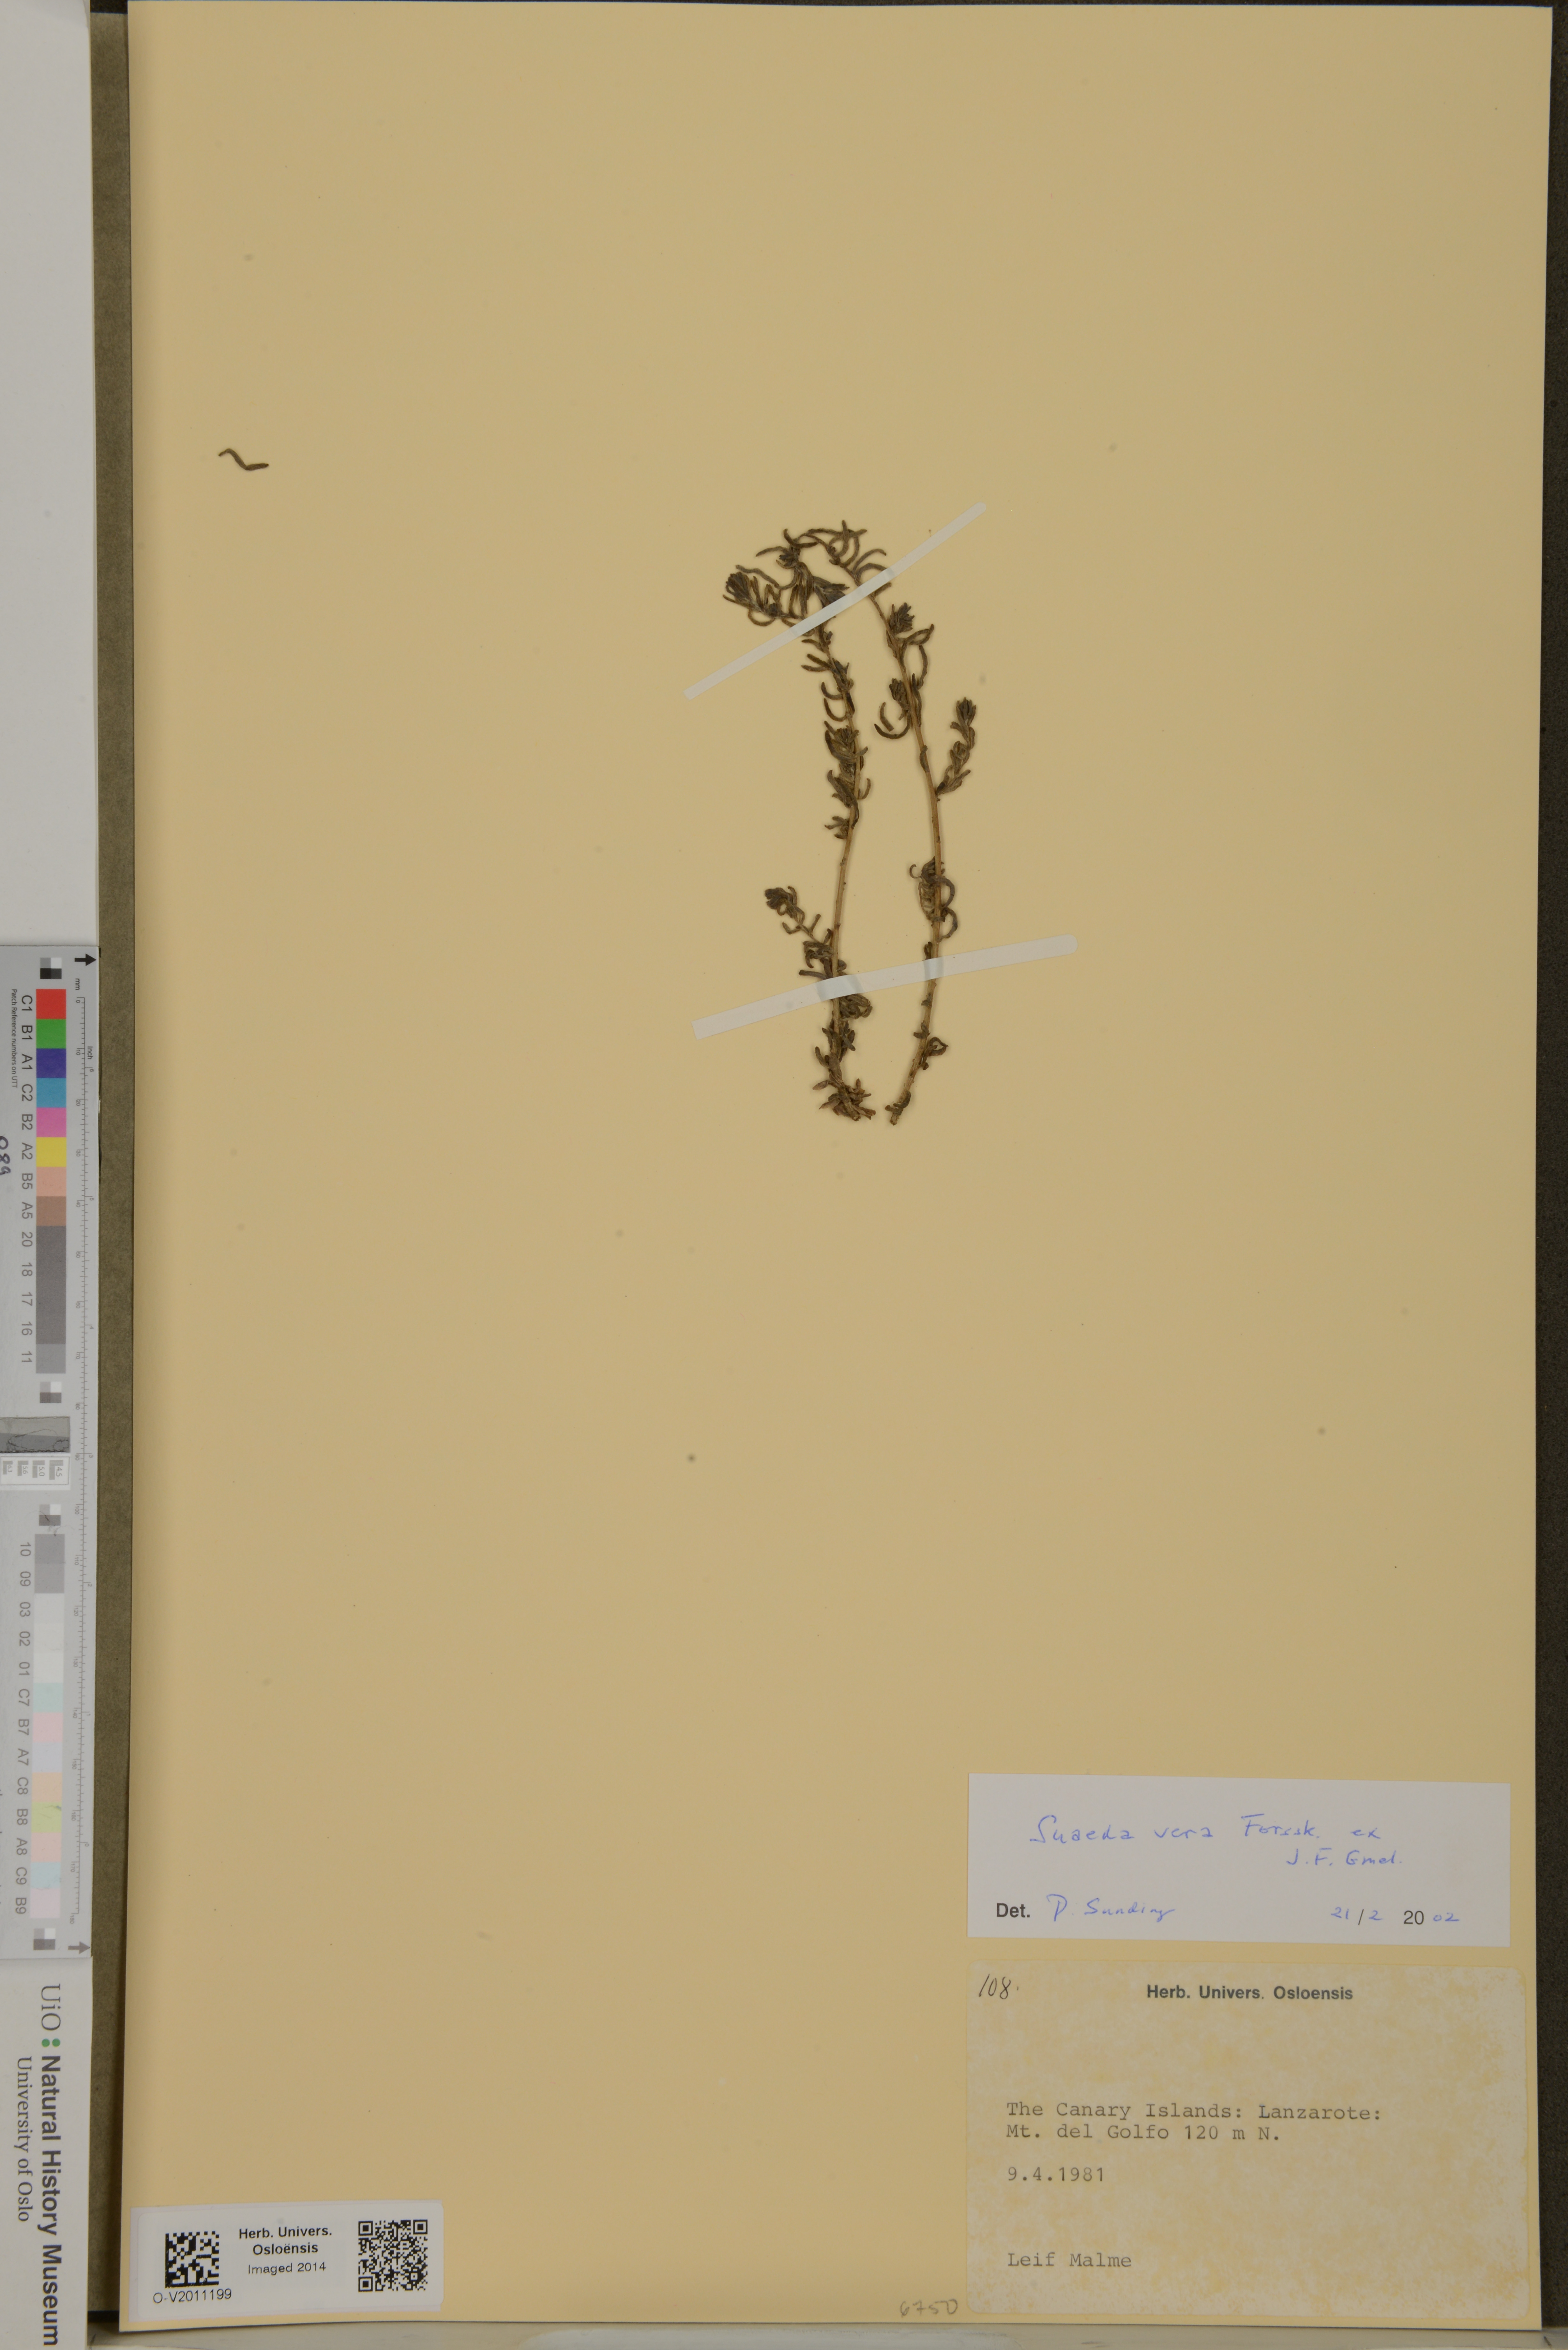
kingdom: Plantae
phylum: Tracheophyta
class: Magnoliopsida
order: Caryophyllales
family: Amaranthaceae
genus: Suaeda
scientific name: Suaeda vera
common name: Shrubby sea-blite
